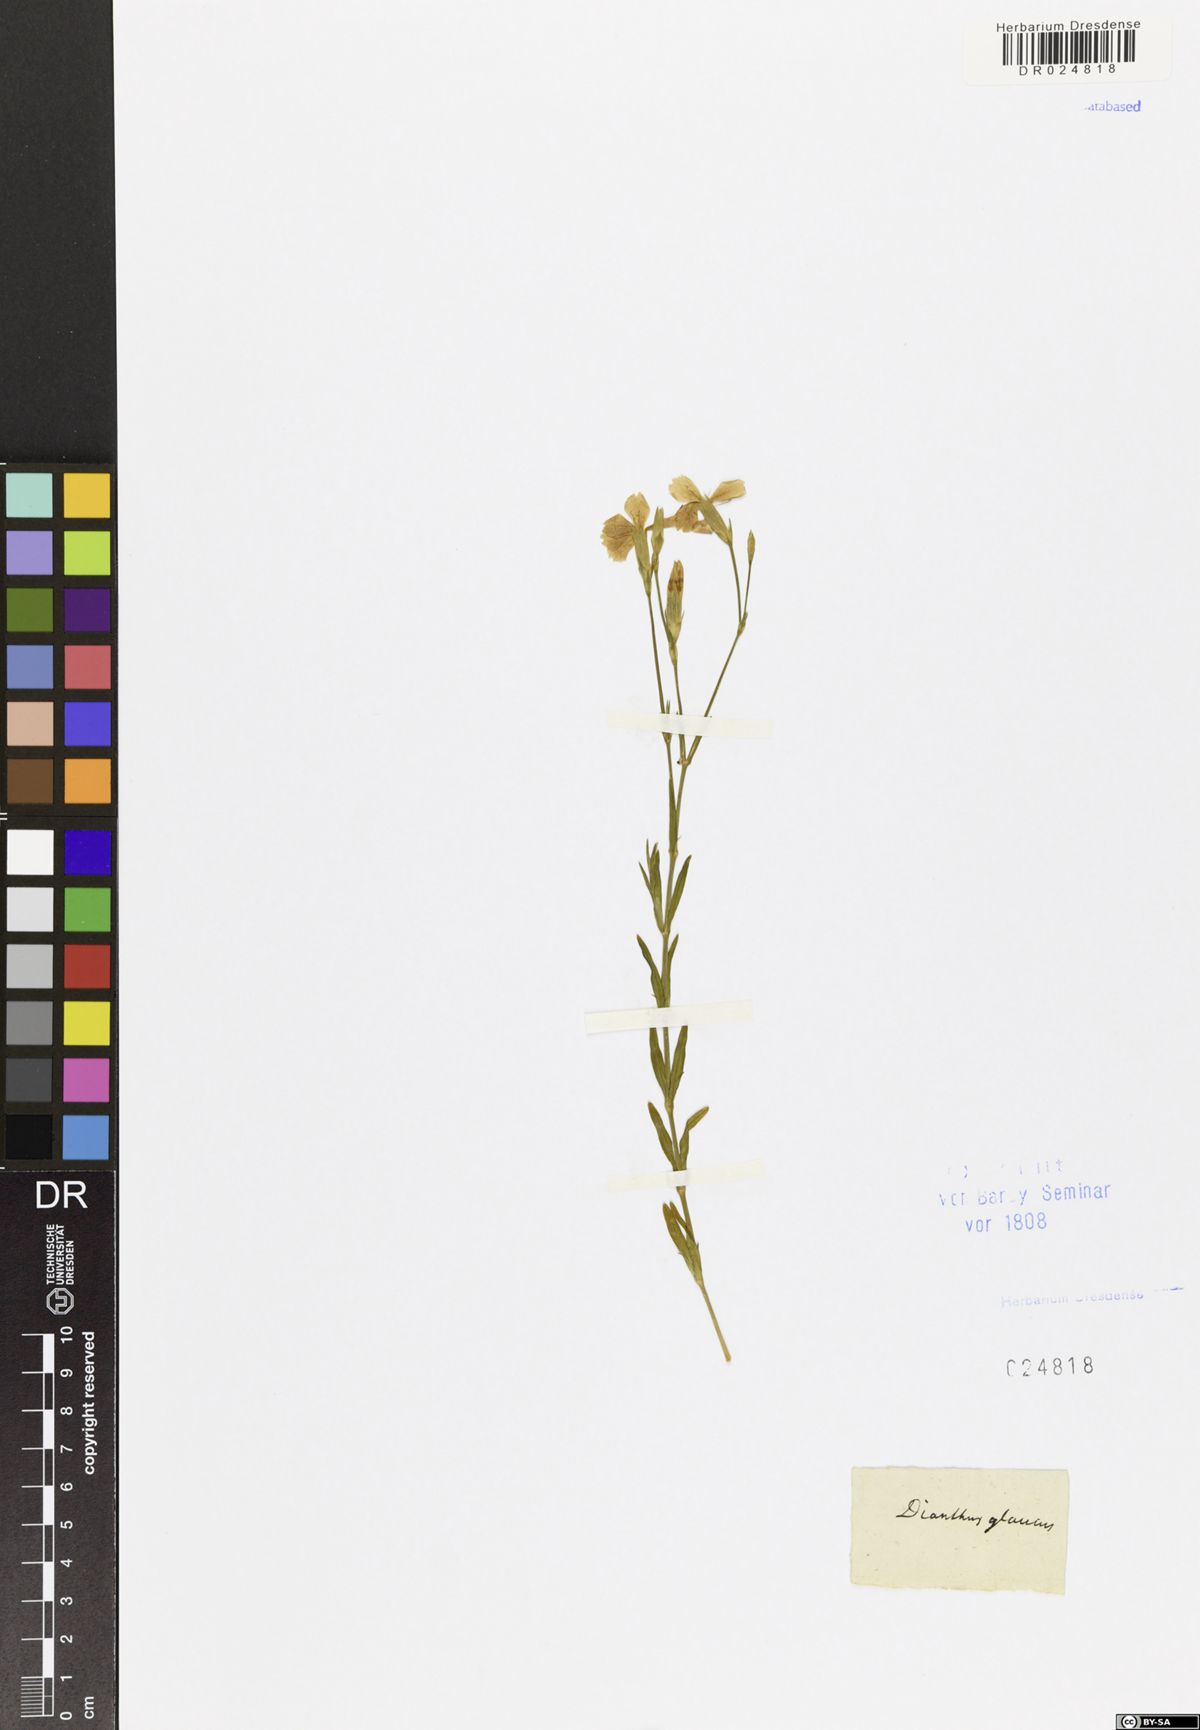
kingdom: Plantae
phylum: Tracheophyta
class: Magnoliopsida
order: Caryophyllales
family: Caryophyllaceae
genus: Dianthus
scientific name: Dianthus deltoides
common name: Maiden pink
